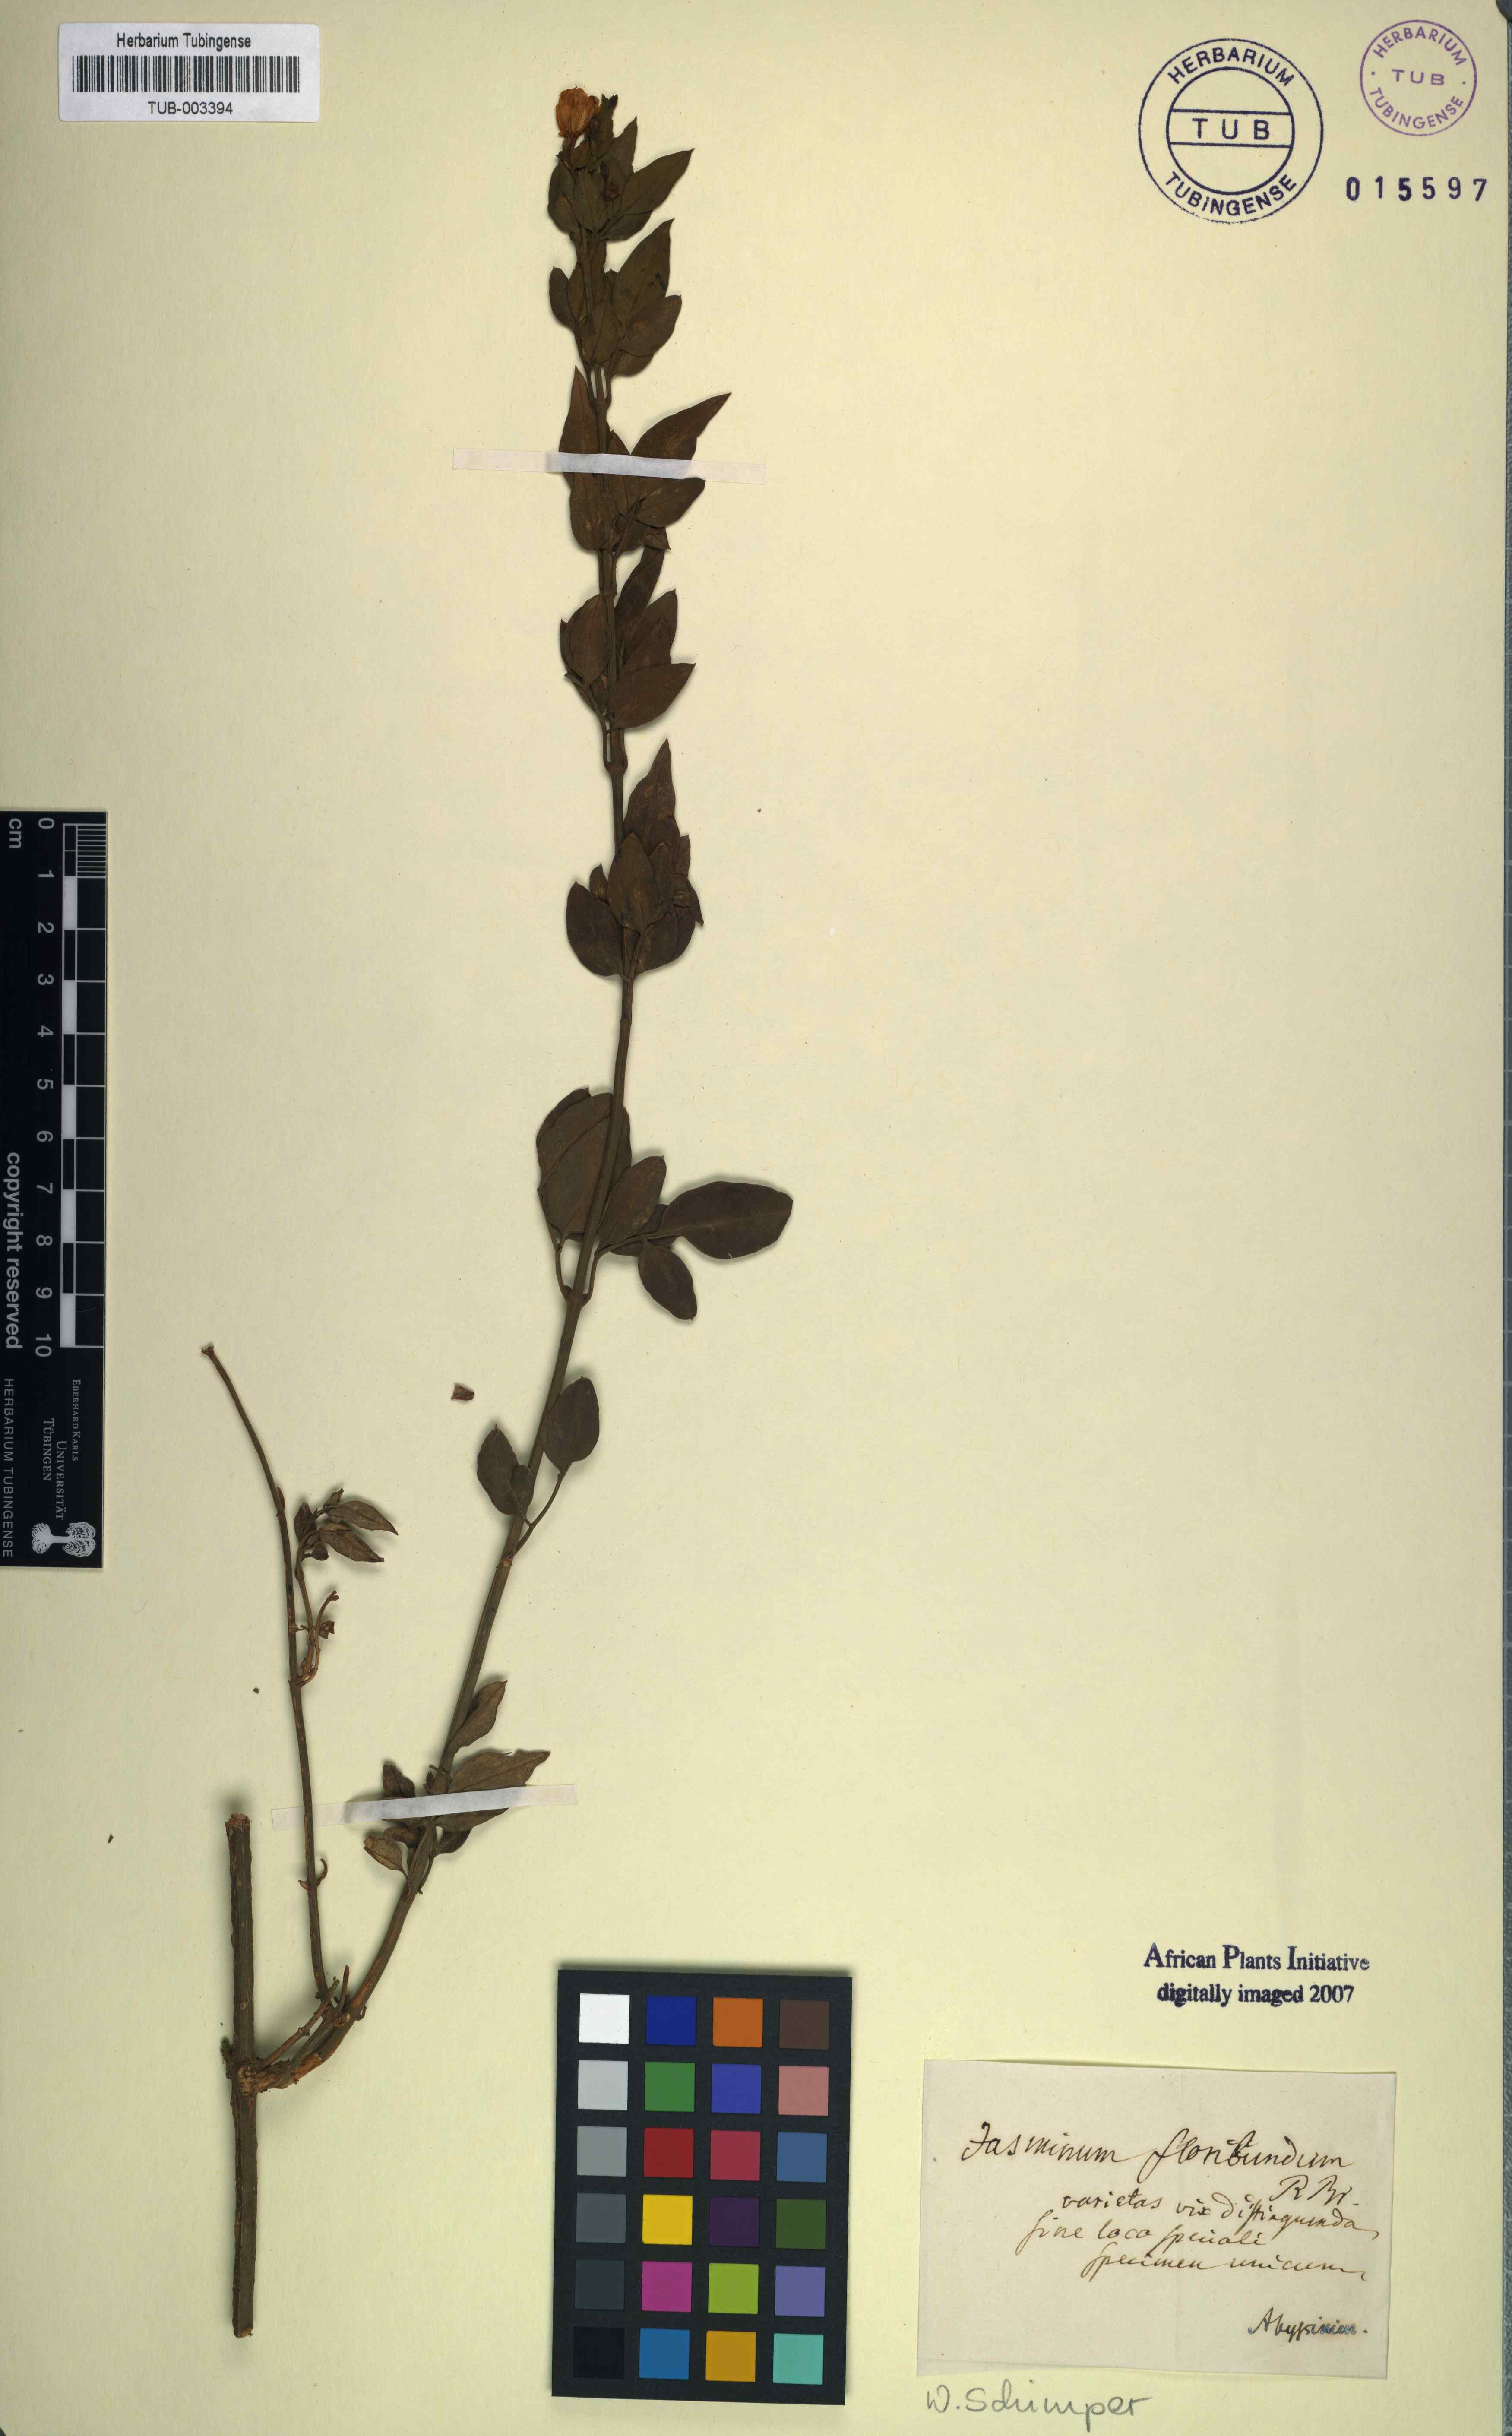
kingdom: Plantae
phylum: Tracheophyta
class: Magnoliopsida
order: Lamiales
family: Oleaceae
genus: Jasminum
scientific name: Jasminum grandiflorum
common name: Catalonian jasmine
